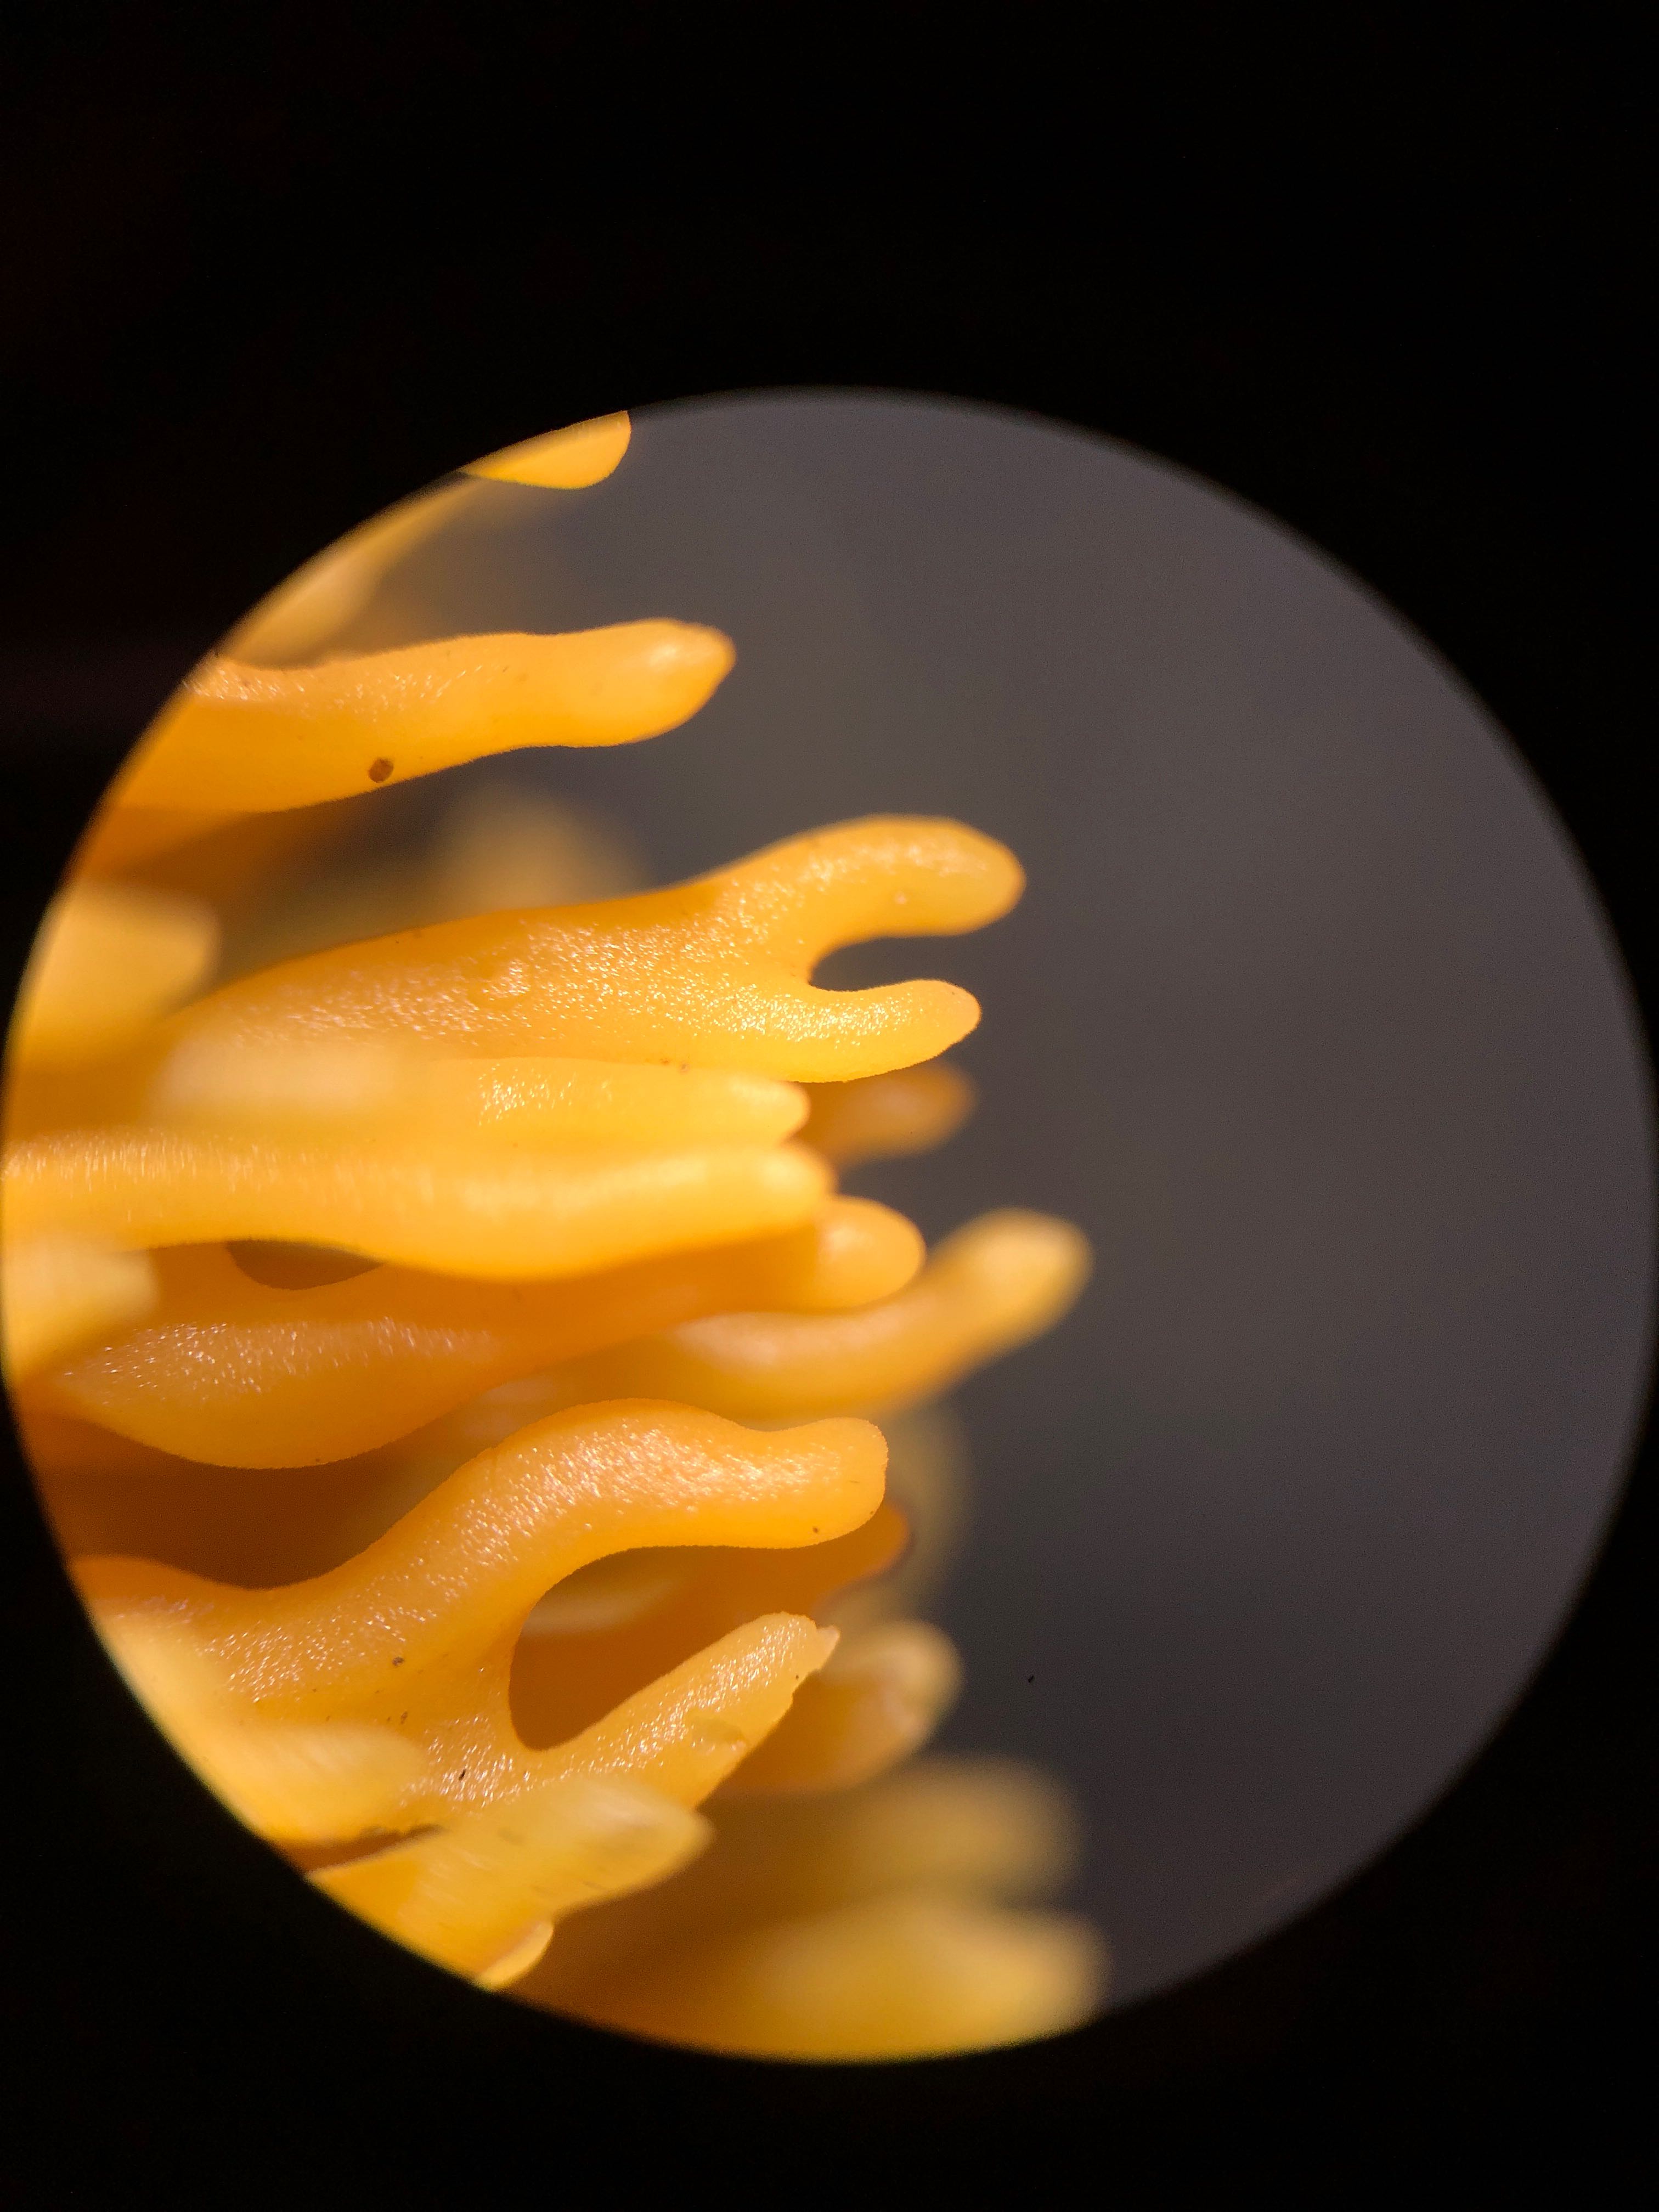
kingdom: Fungi
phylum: Basidiomycota
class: Agaricomycetes
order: Agaricales
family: Clavariaceae
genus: Clavulinopsis
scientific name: Clavulinopsis corniculata
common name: eng-køllesvamp
